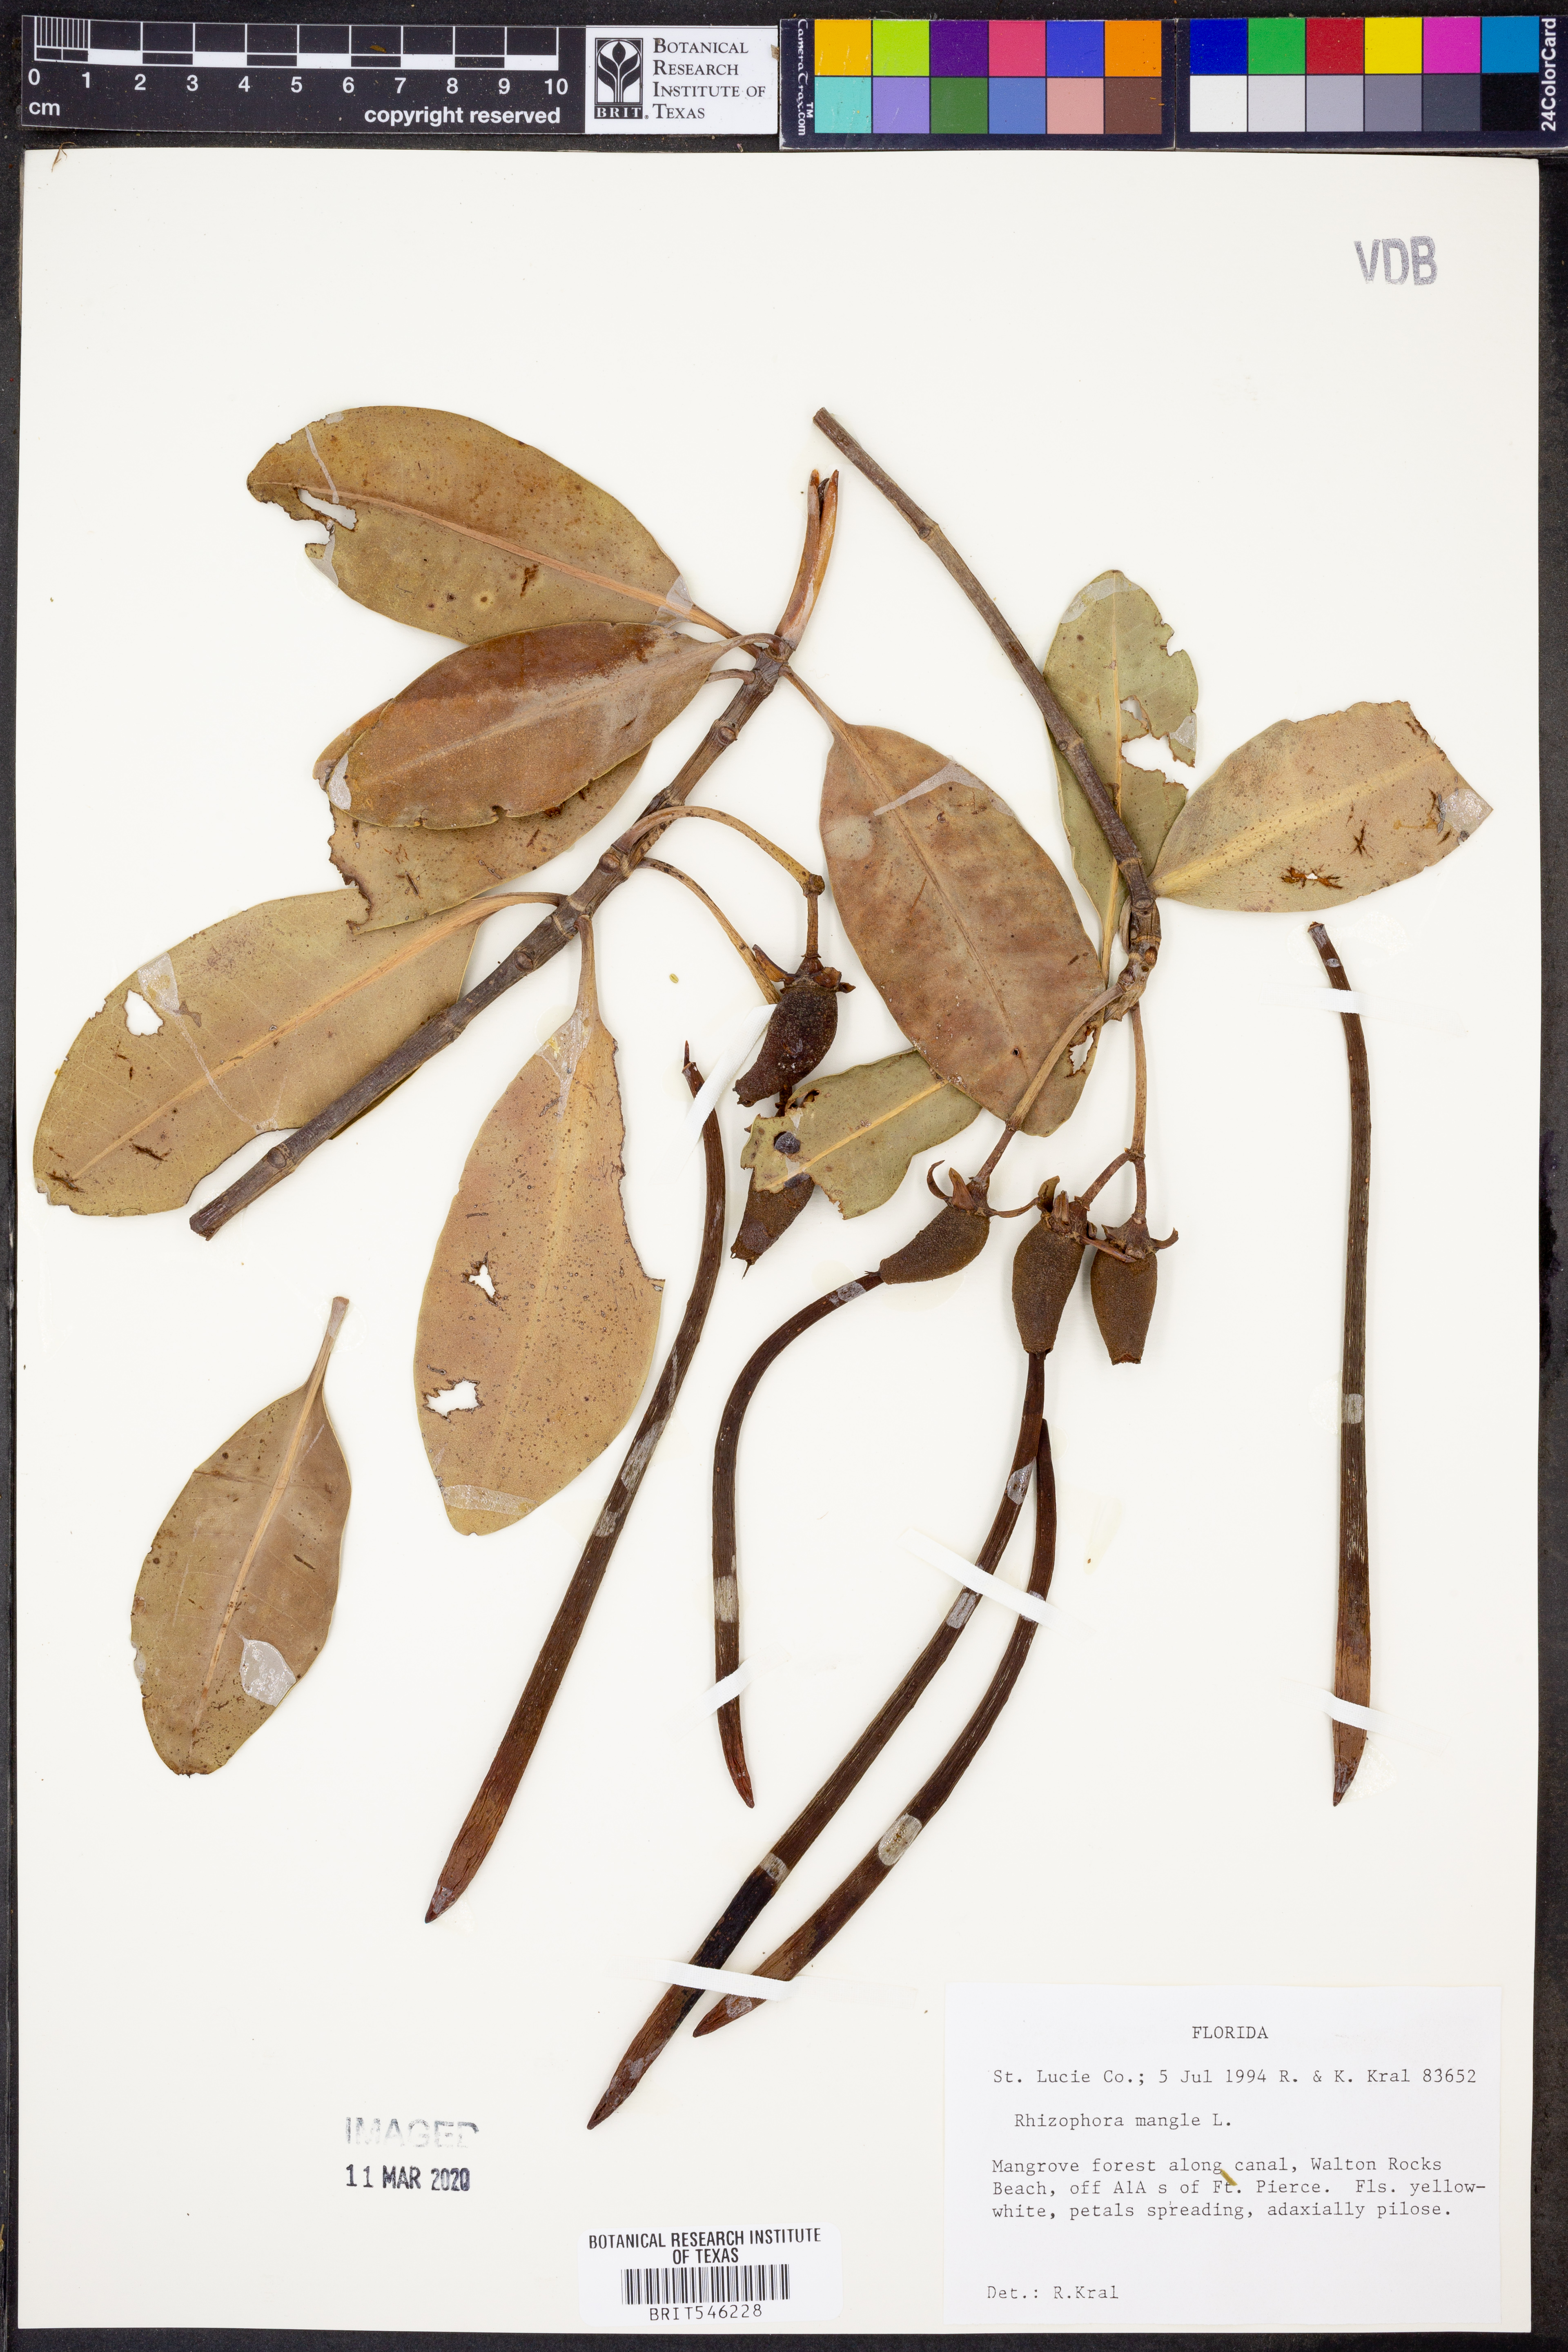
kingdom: Plantae
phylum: Tracheophyta
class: Magnoliopsida
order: Malpighiales
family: Rhizophoraceae
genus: Rhizophora
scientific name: Rhizophora mucronata
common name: Loop-root mangrove
